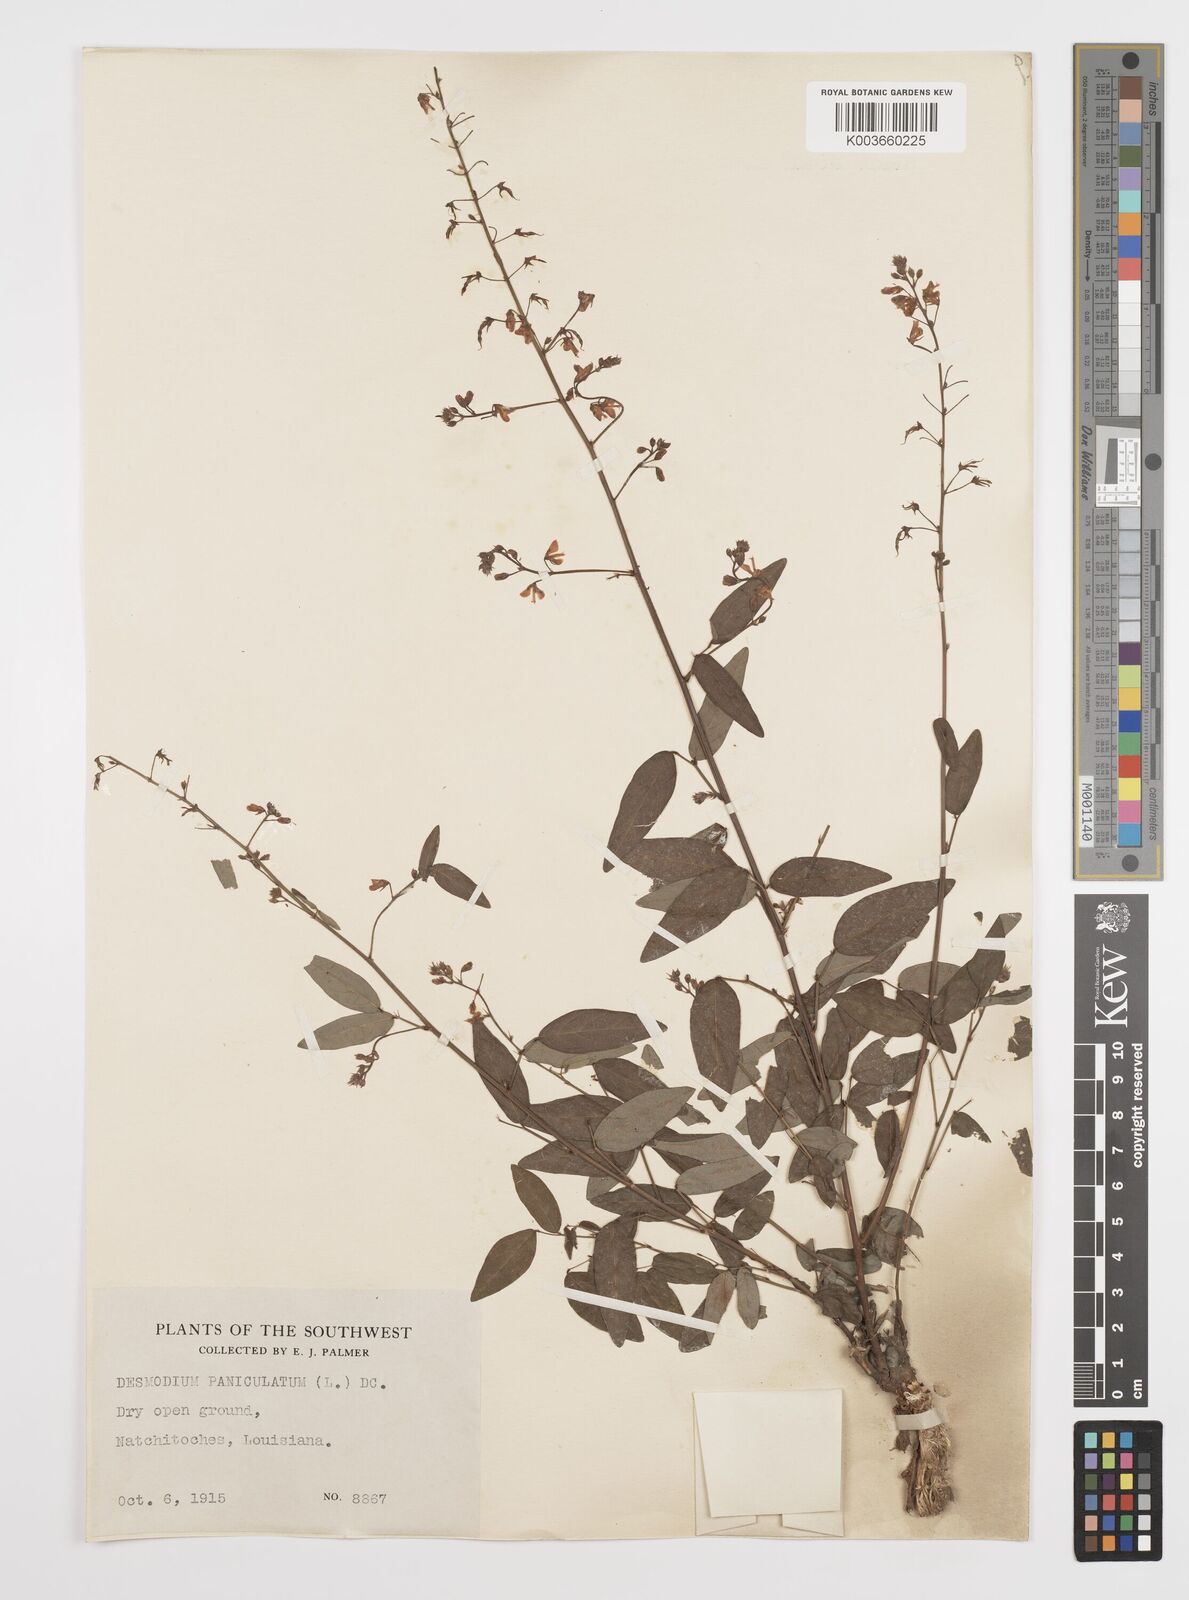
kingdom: Plantae
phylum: Tracheophyta
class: Magnoliopsida
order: Fabales
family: Fabaceae
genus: Desmodium
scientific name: Desmodium paniculatum
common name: Panicled tick-clover
